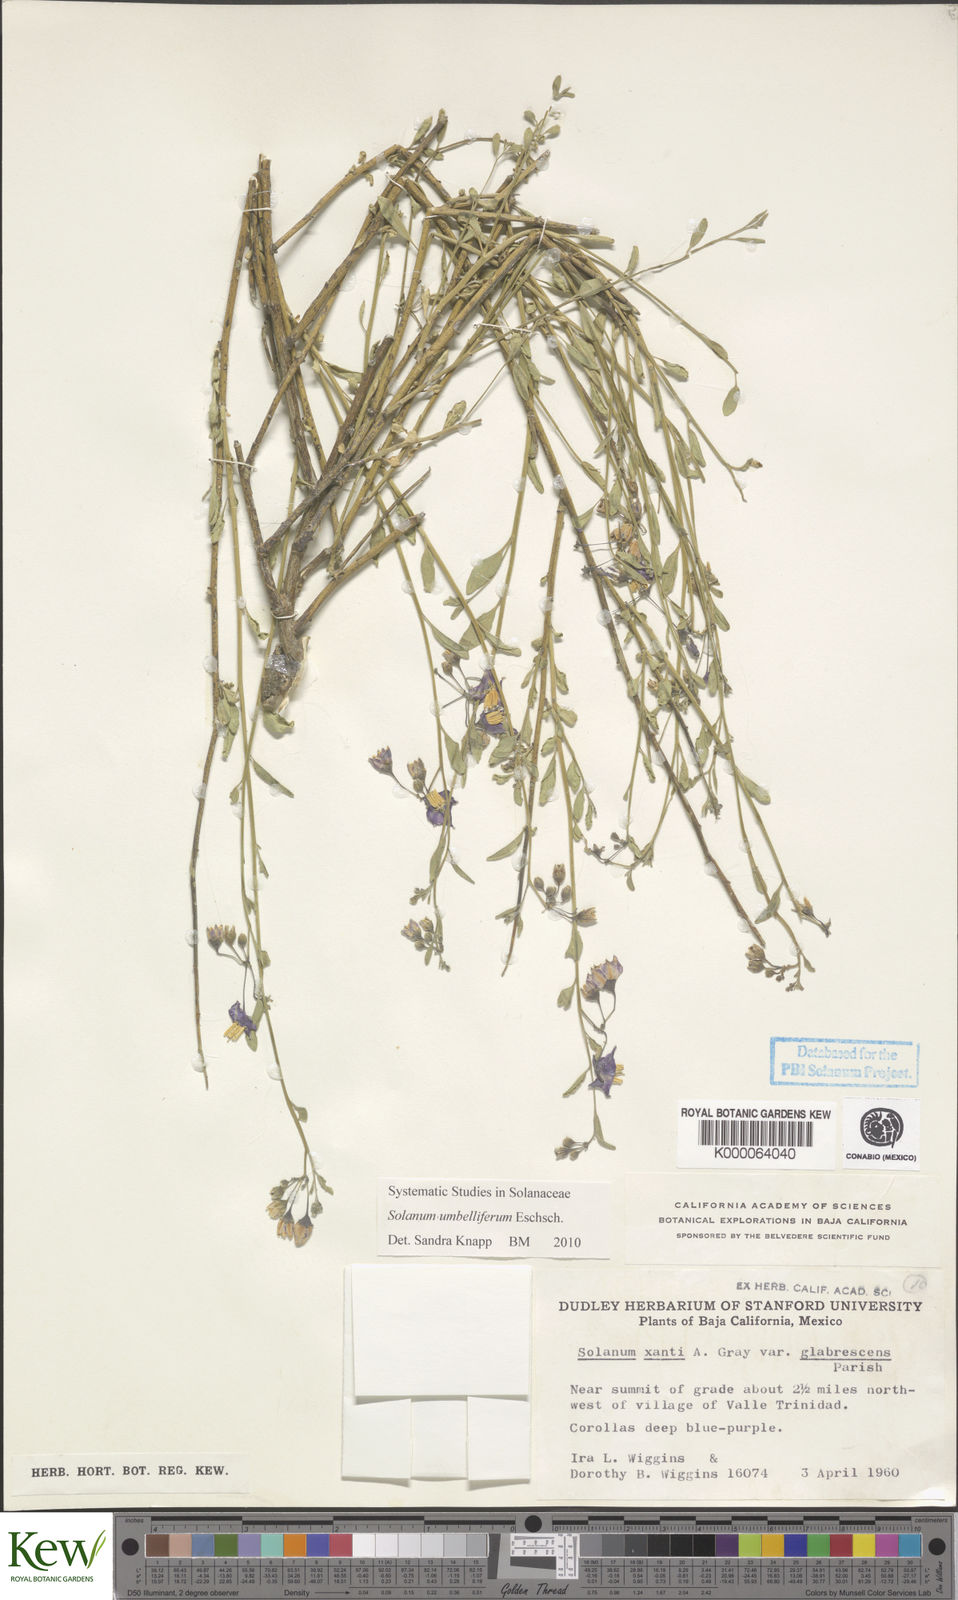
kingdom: Plantae
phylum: Tracheophyta
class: Magnoliopsida
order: Solanales
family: Solanaceae
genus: Solanum
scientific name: Solanum umbelliferum
